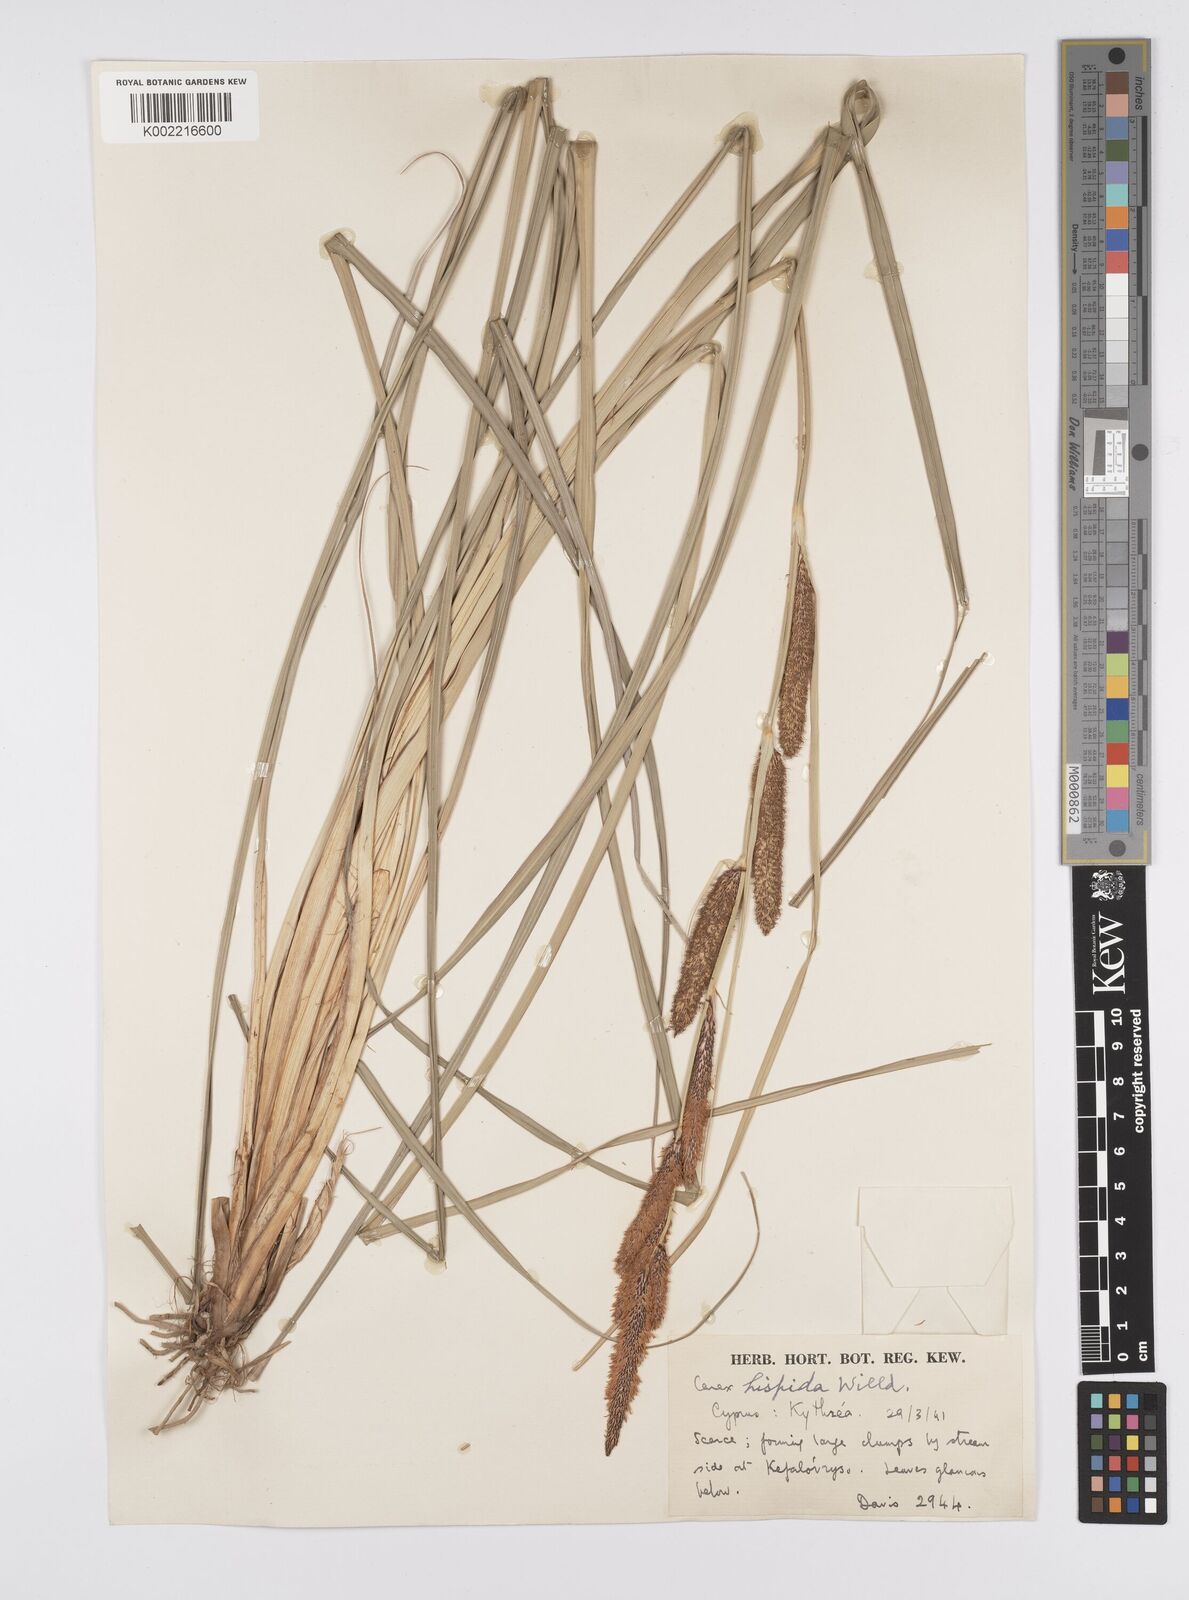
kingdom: Plantae
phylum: Tracheophyta
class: Liliopsida
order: Poales
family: Cyperaceae
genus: Carex
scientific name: Carex hispida
